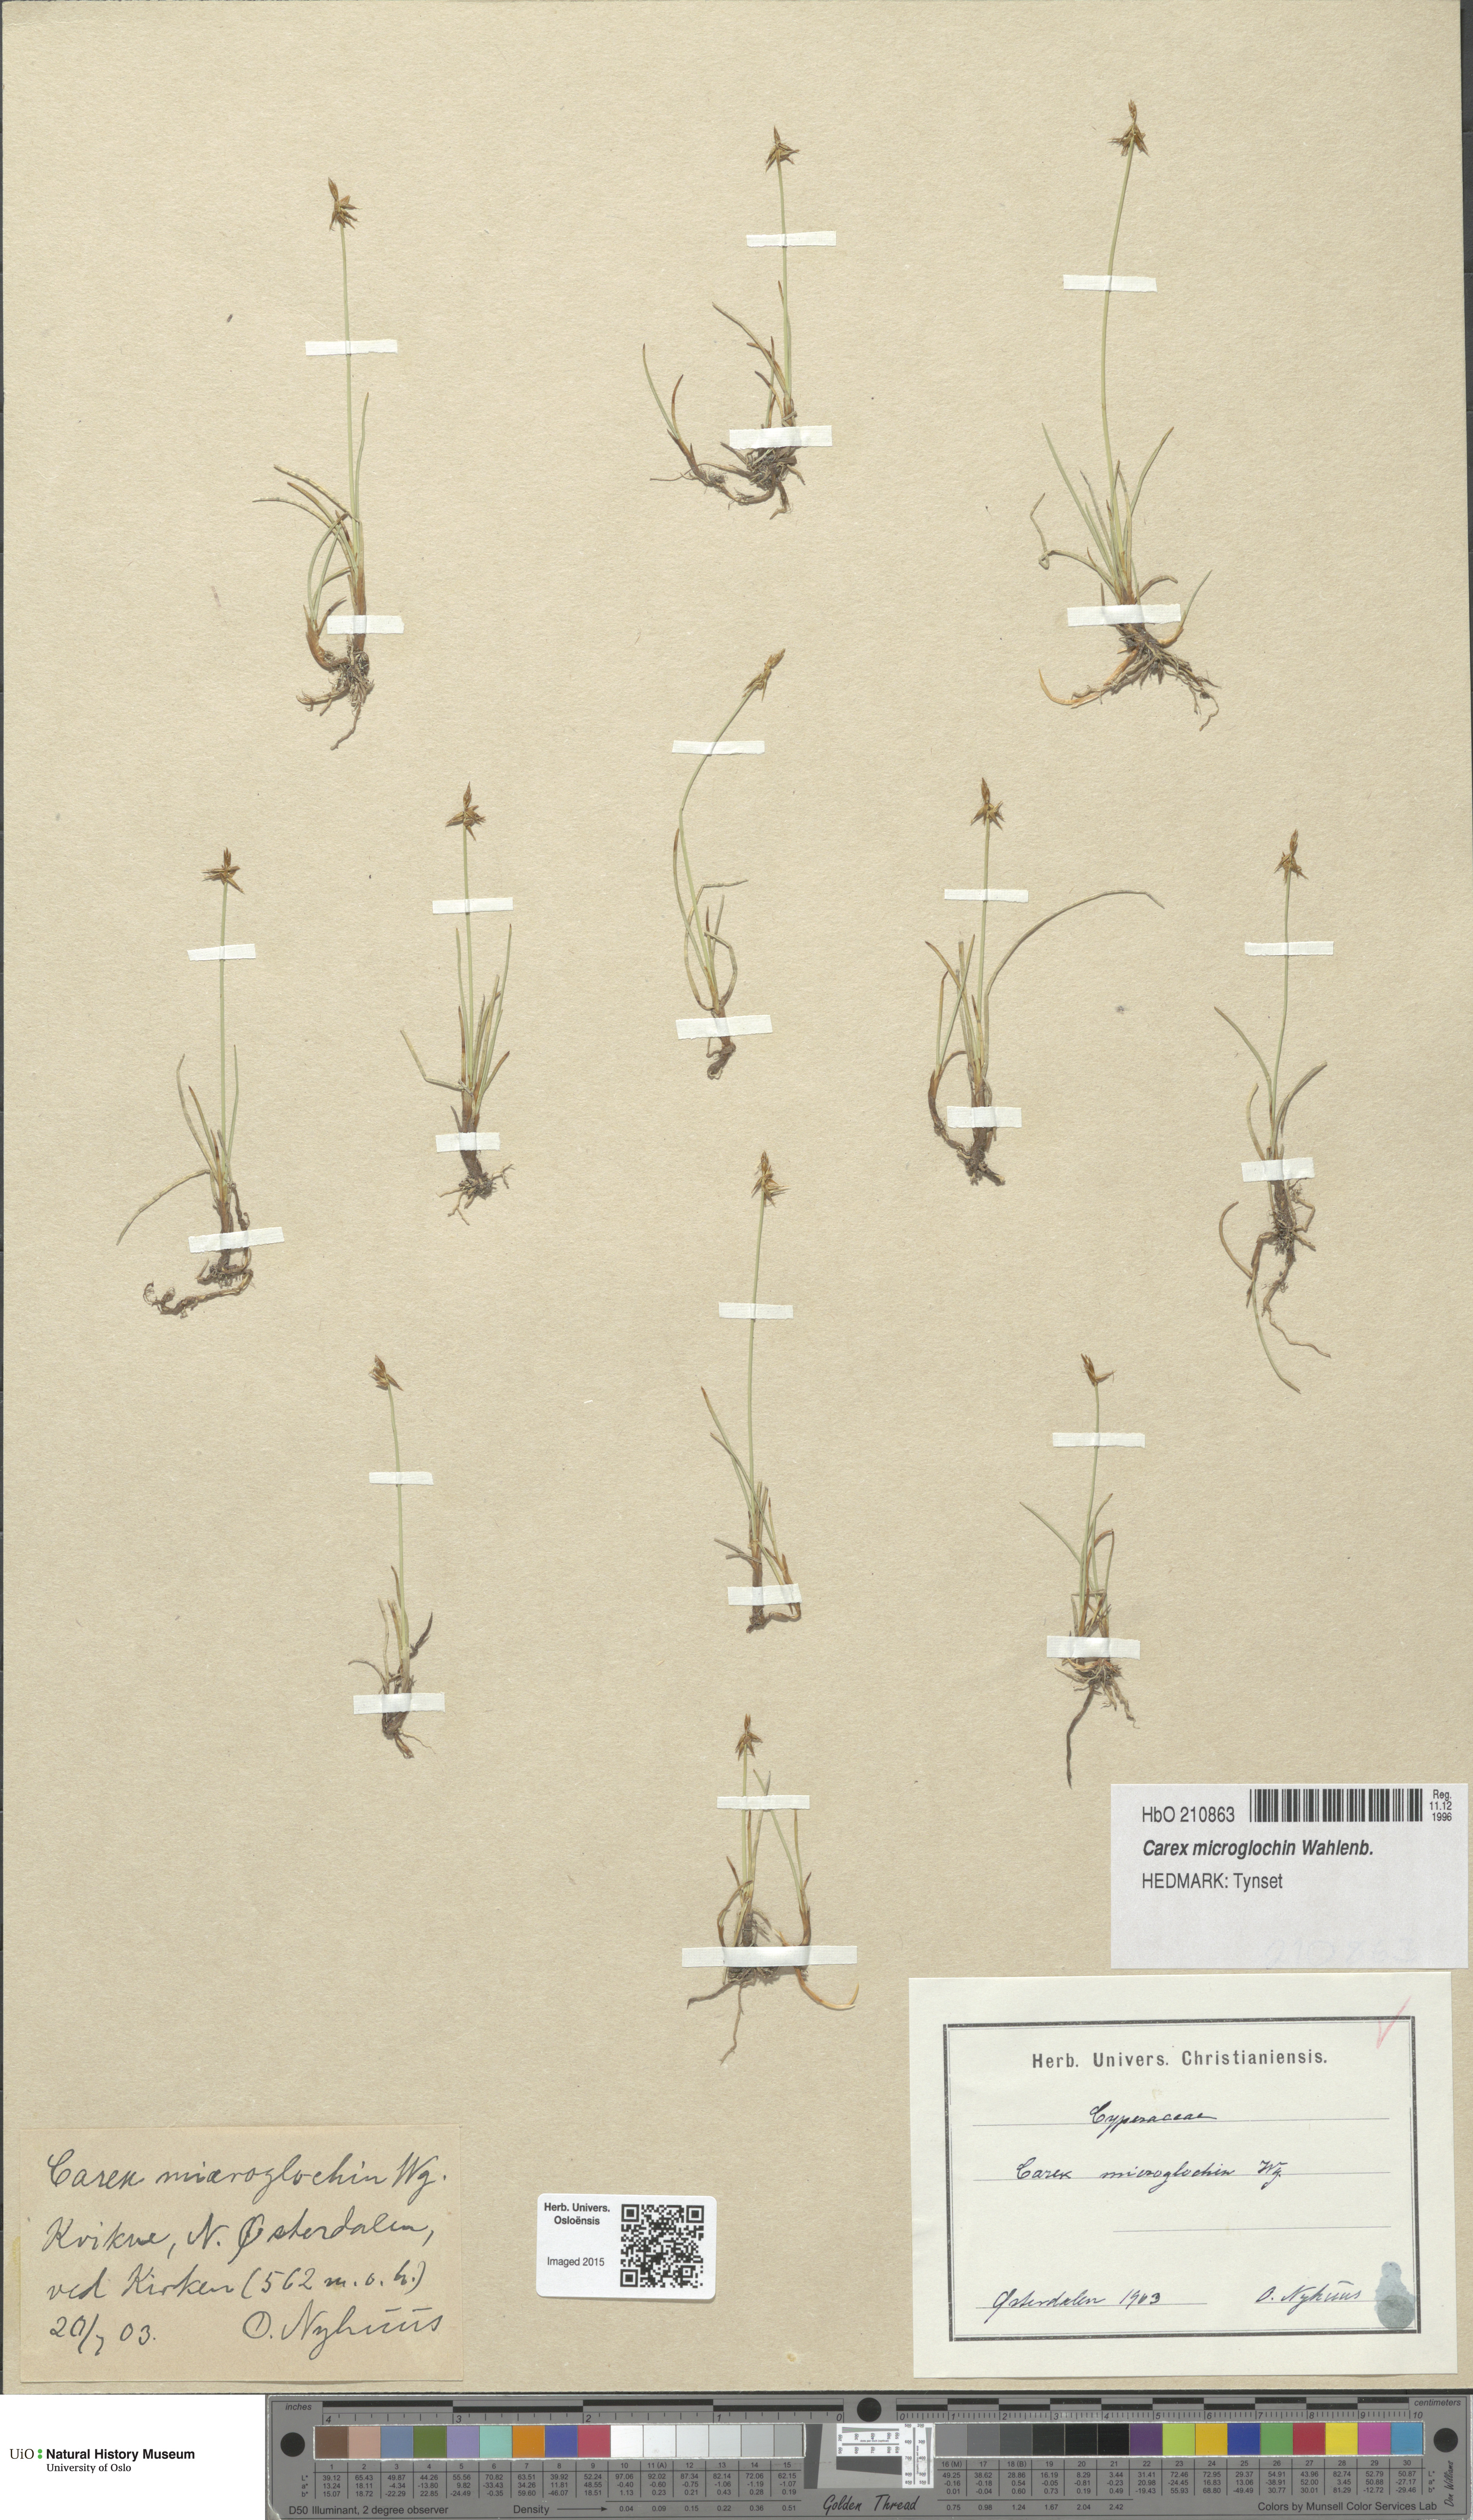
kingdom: Plantae
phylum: Tracheophyta
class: Liliopsida
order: Poales
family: Cyperaceae
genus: Carex
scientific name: Carex microglochin
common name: Bristle sedge
